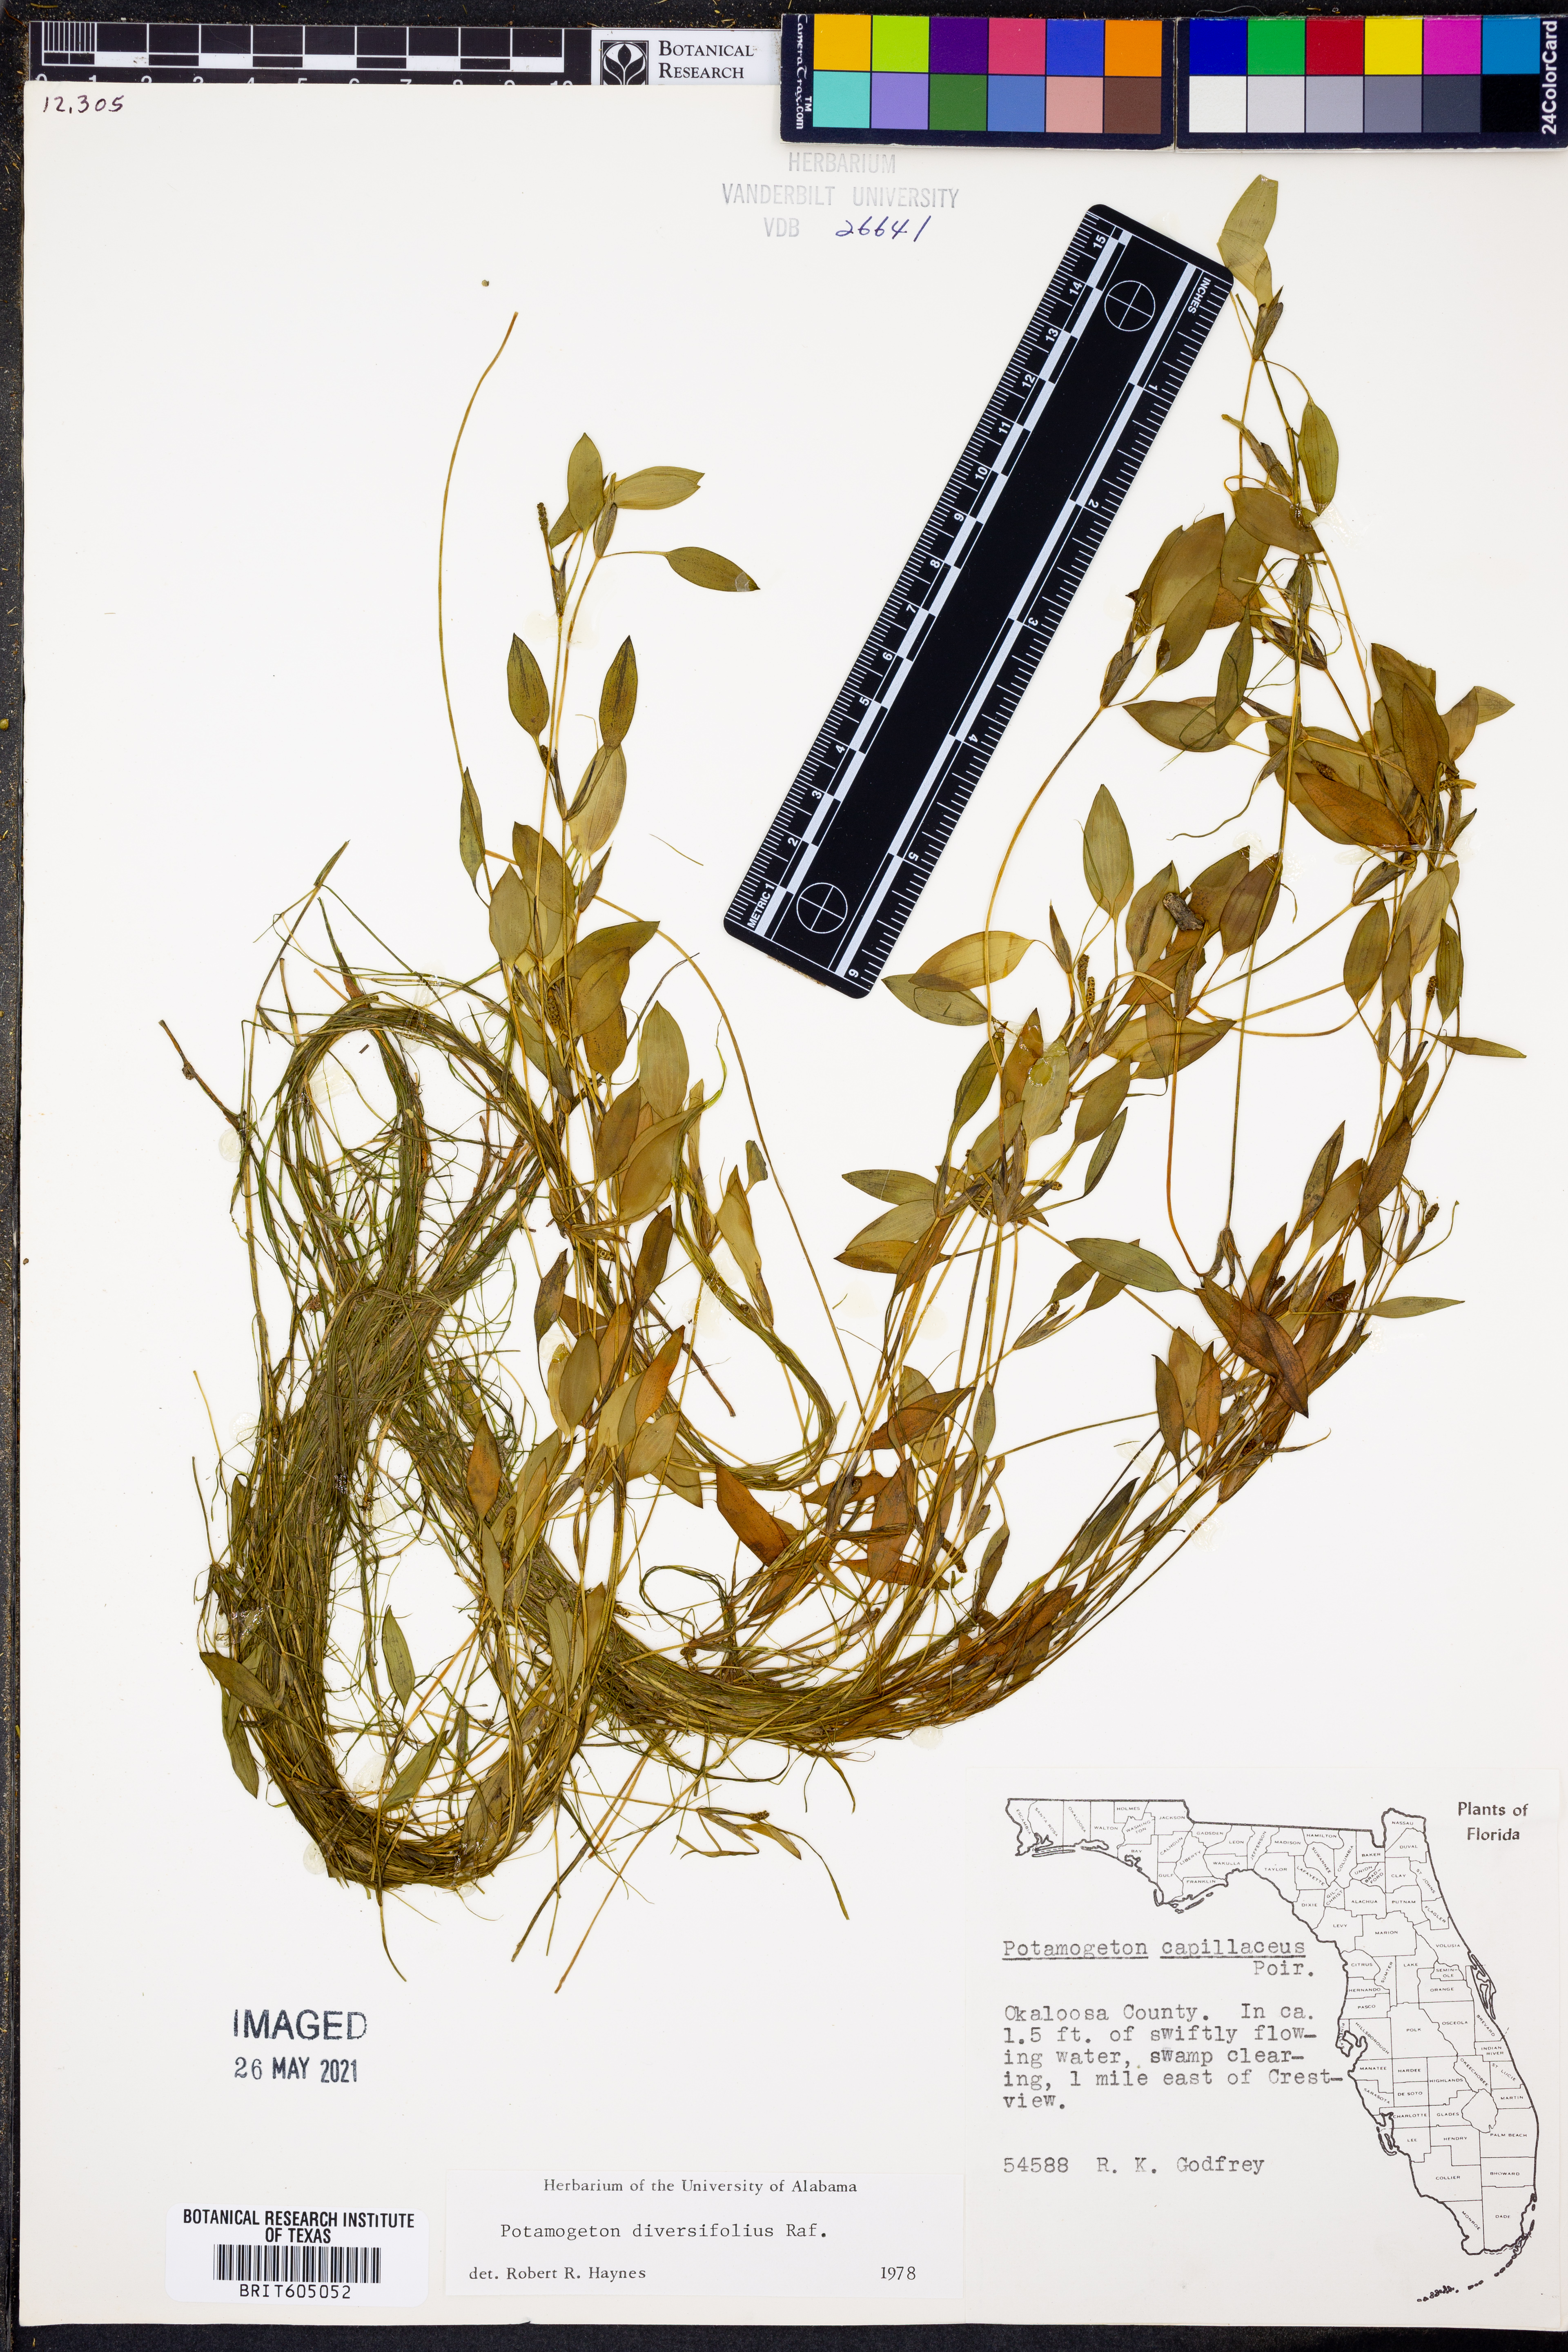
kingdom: Plantae
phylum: Tracheophyta
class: Liliopsida
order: Alismatales
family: Potamogetonaceae
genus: Potamogeton
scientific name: Potamogeton diversifolius
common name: Water-thread pondweed
